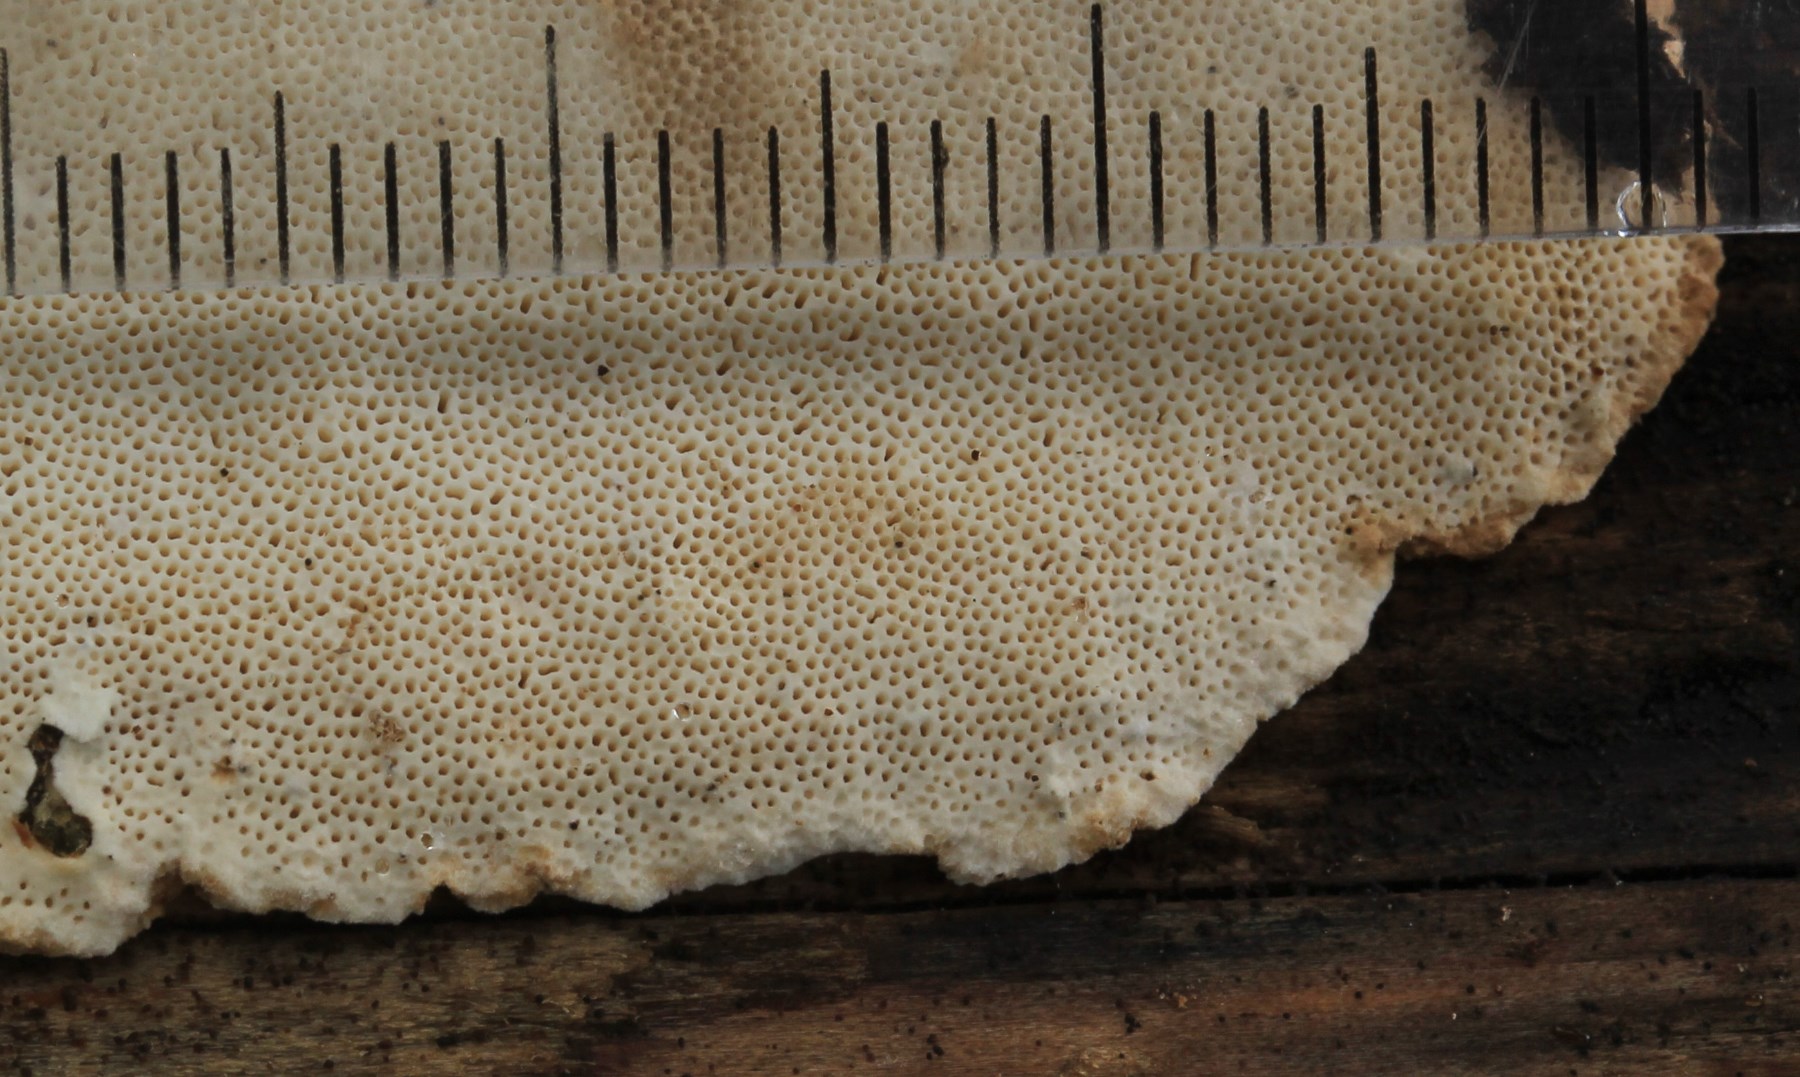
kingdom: Fungi
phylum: Basidiomycota
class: Agaricomycetes
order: Polyporales
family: Fomitopsidaceae
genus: Neoantrodia
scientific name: Neoantrodia serialis
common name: række-sejporesvamp
